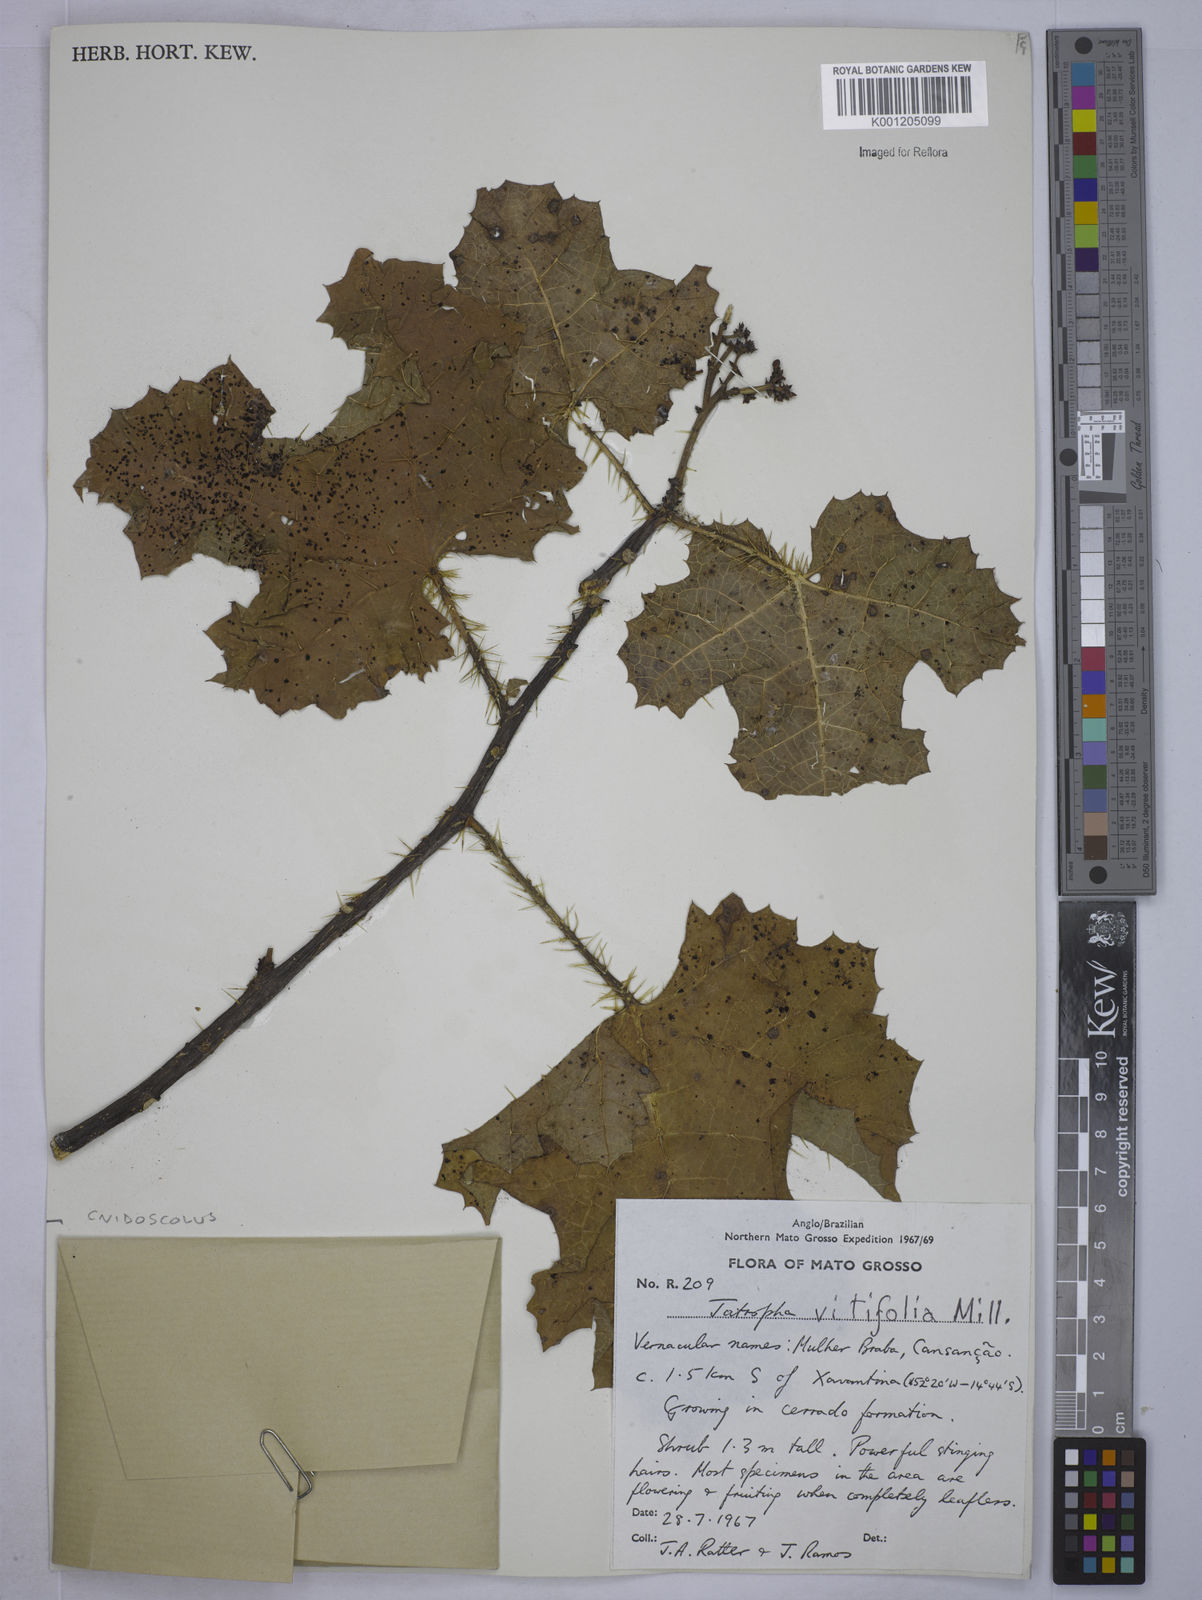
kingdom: Plantae
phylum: Tracheophyta
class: Magnoliopsida
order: Malpighiales
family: Euphorbiaceae
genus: Cnidoscolus
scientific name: Cnidoscolus vitifolius
